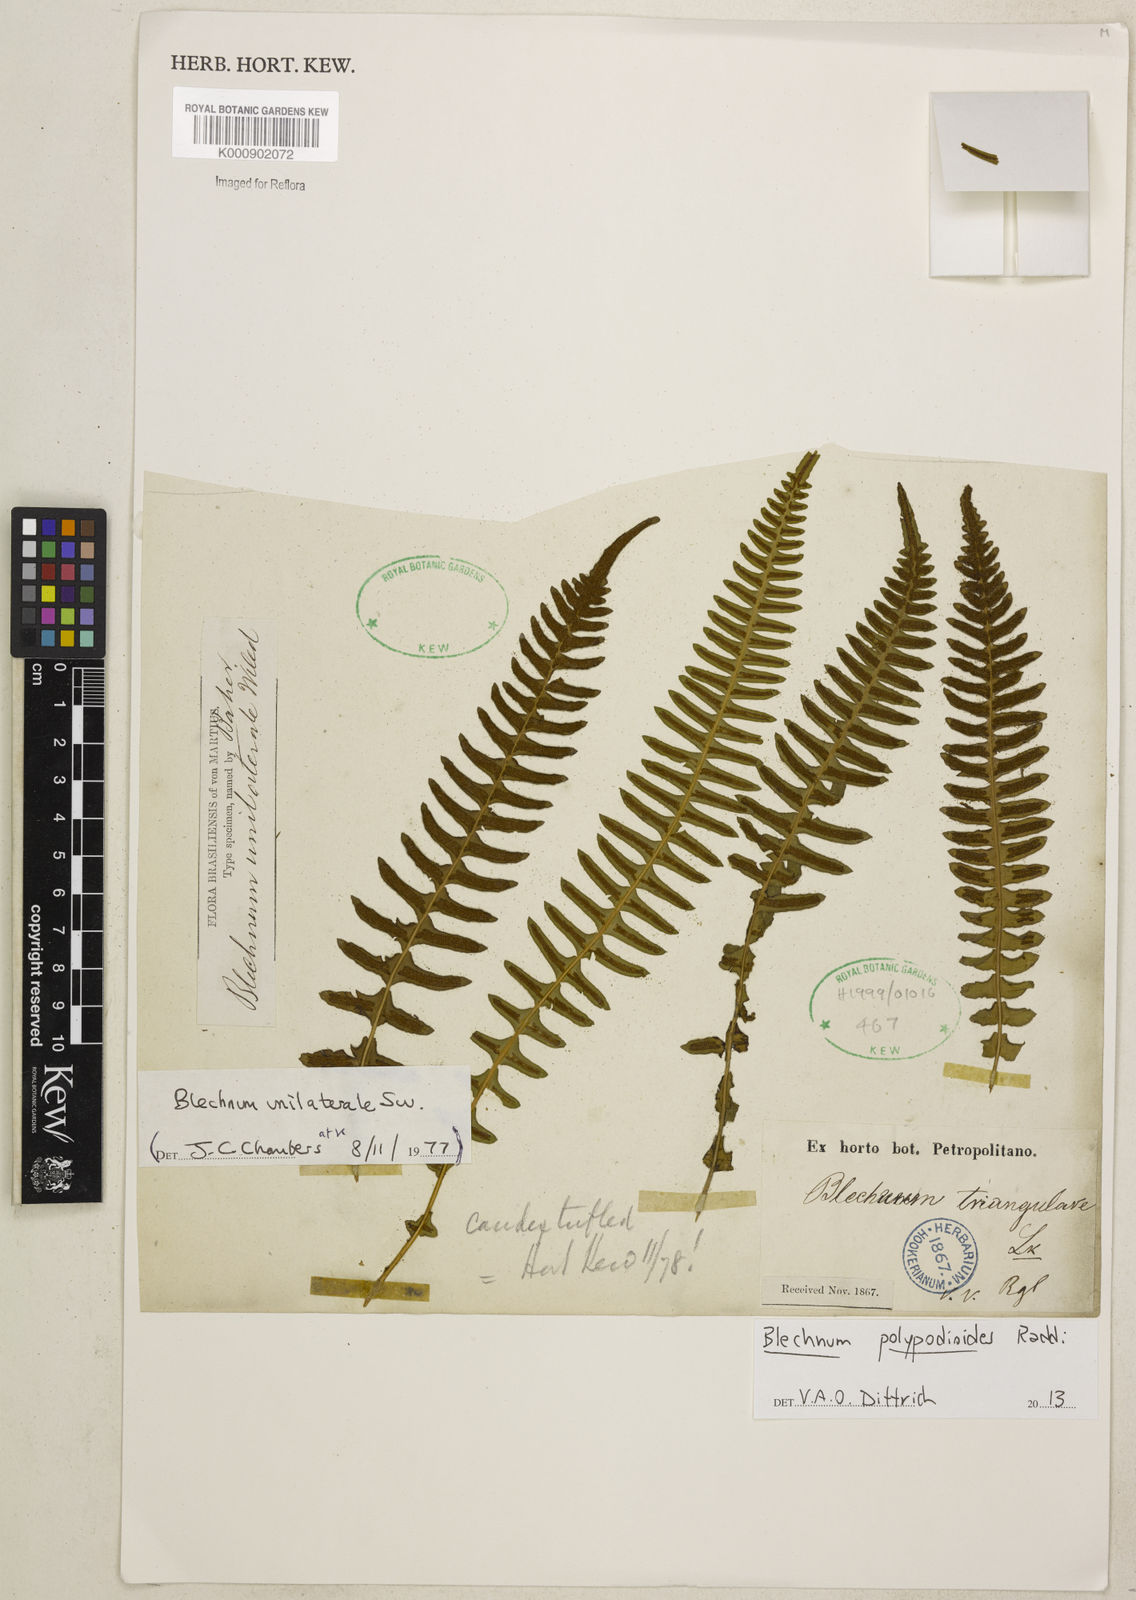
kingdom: Plantae
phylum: Tracheophyta
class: Polypodiopsida
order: Polypodiales
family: Blechnaceae
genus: Blechnum
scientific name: Blechnum polypodioides
